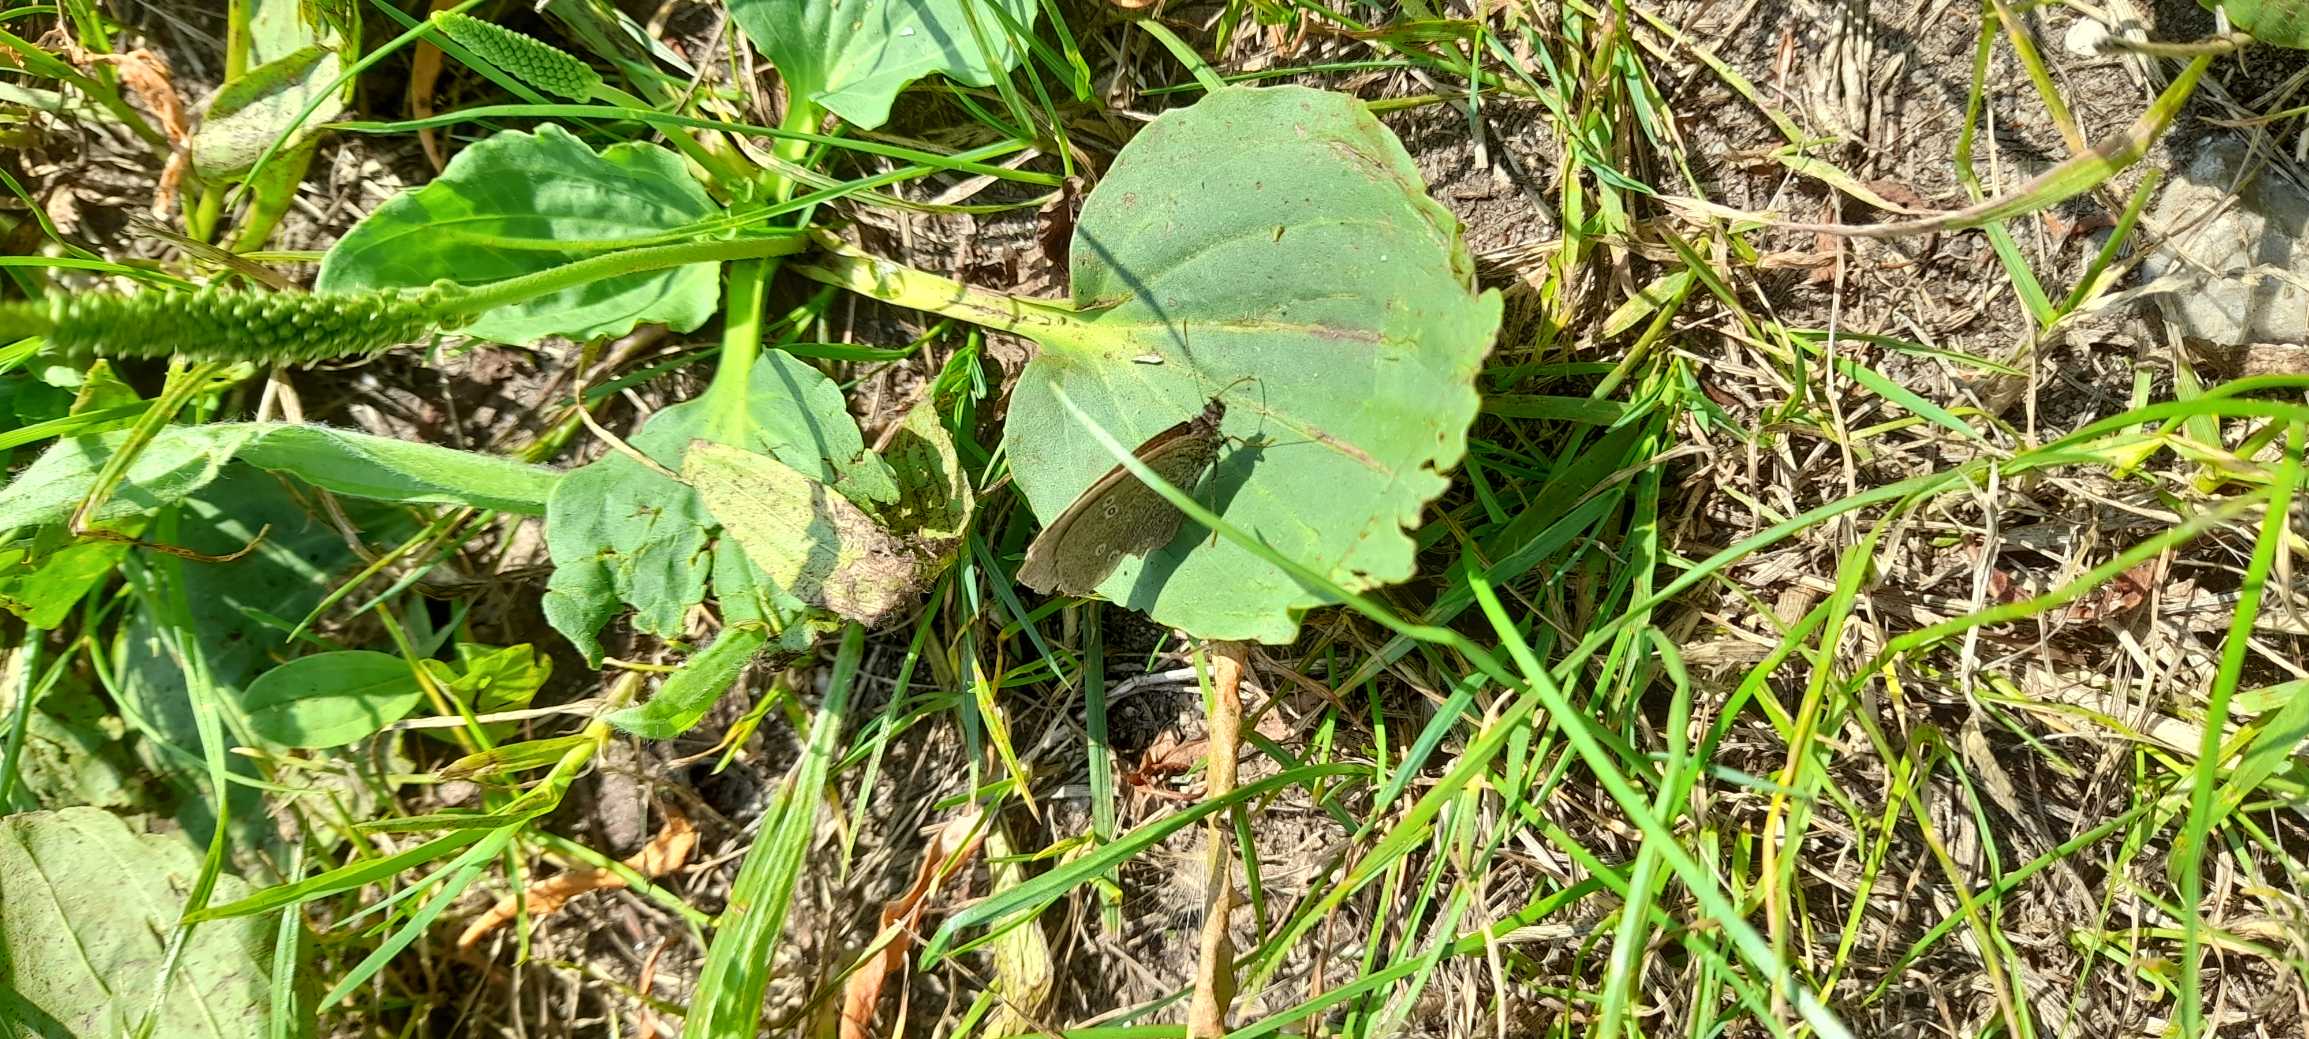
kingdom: Animalia
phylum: Arthropoda
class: Insecta
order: Lepidoptera
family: Nymphalidae
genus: Aphantopus
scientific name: Aphantopus hyperantus
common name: Engrandøje
